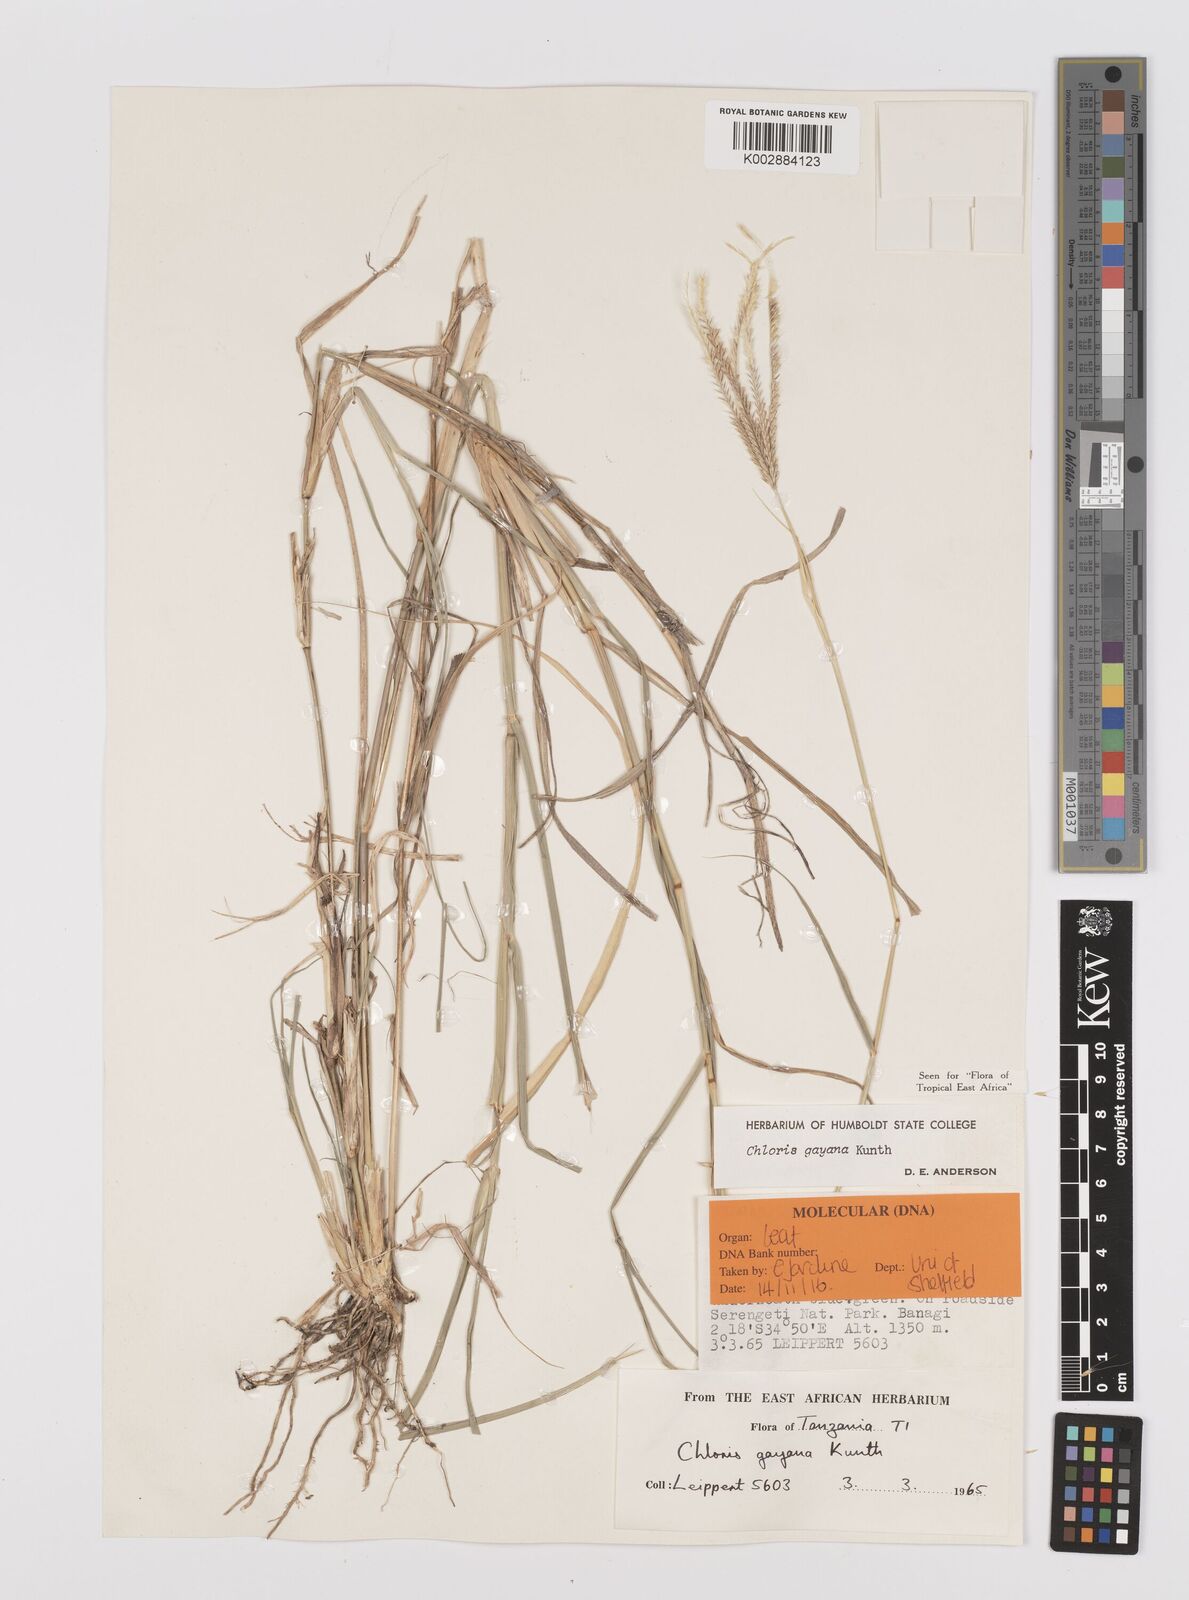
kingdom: Plantae
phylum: Tracheophyta
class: Liliopsida
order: Poales
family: Poaceae
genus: Chloris
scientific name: Chloris gayana
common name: Rhodes grass
